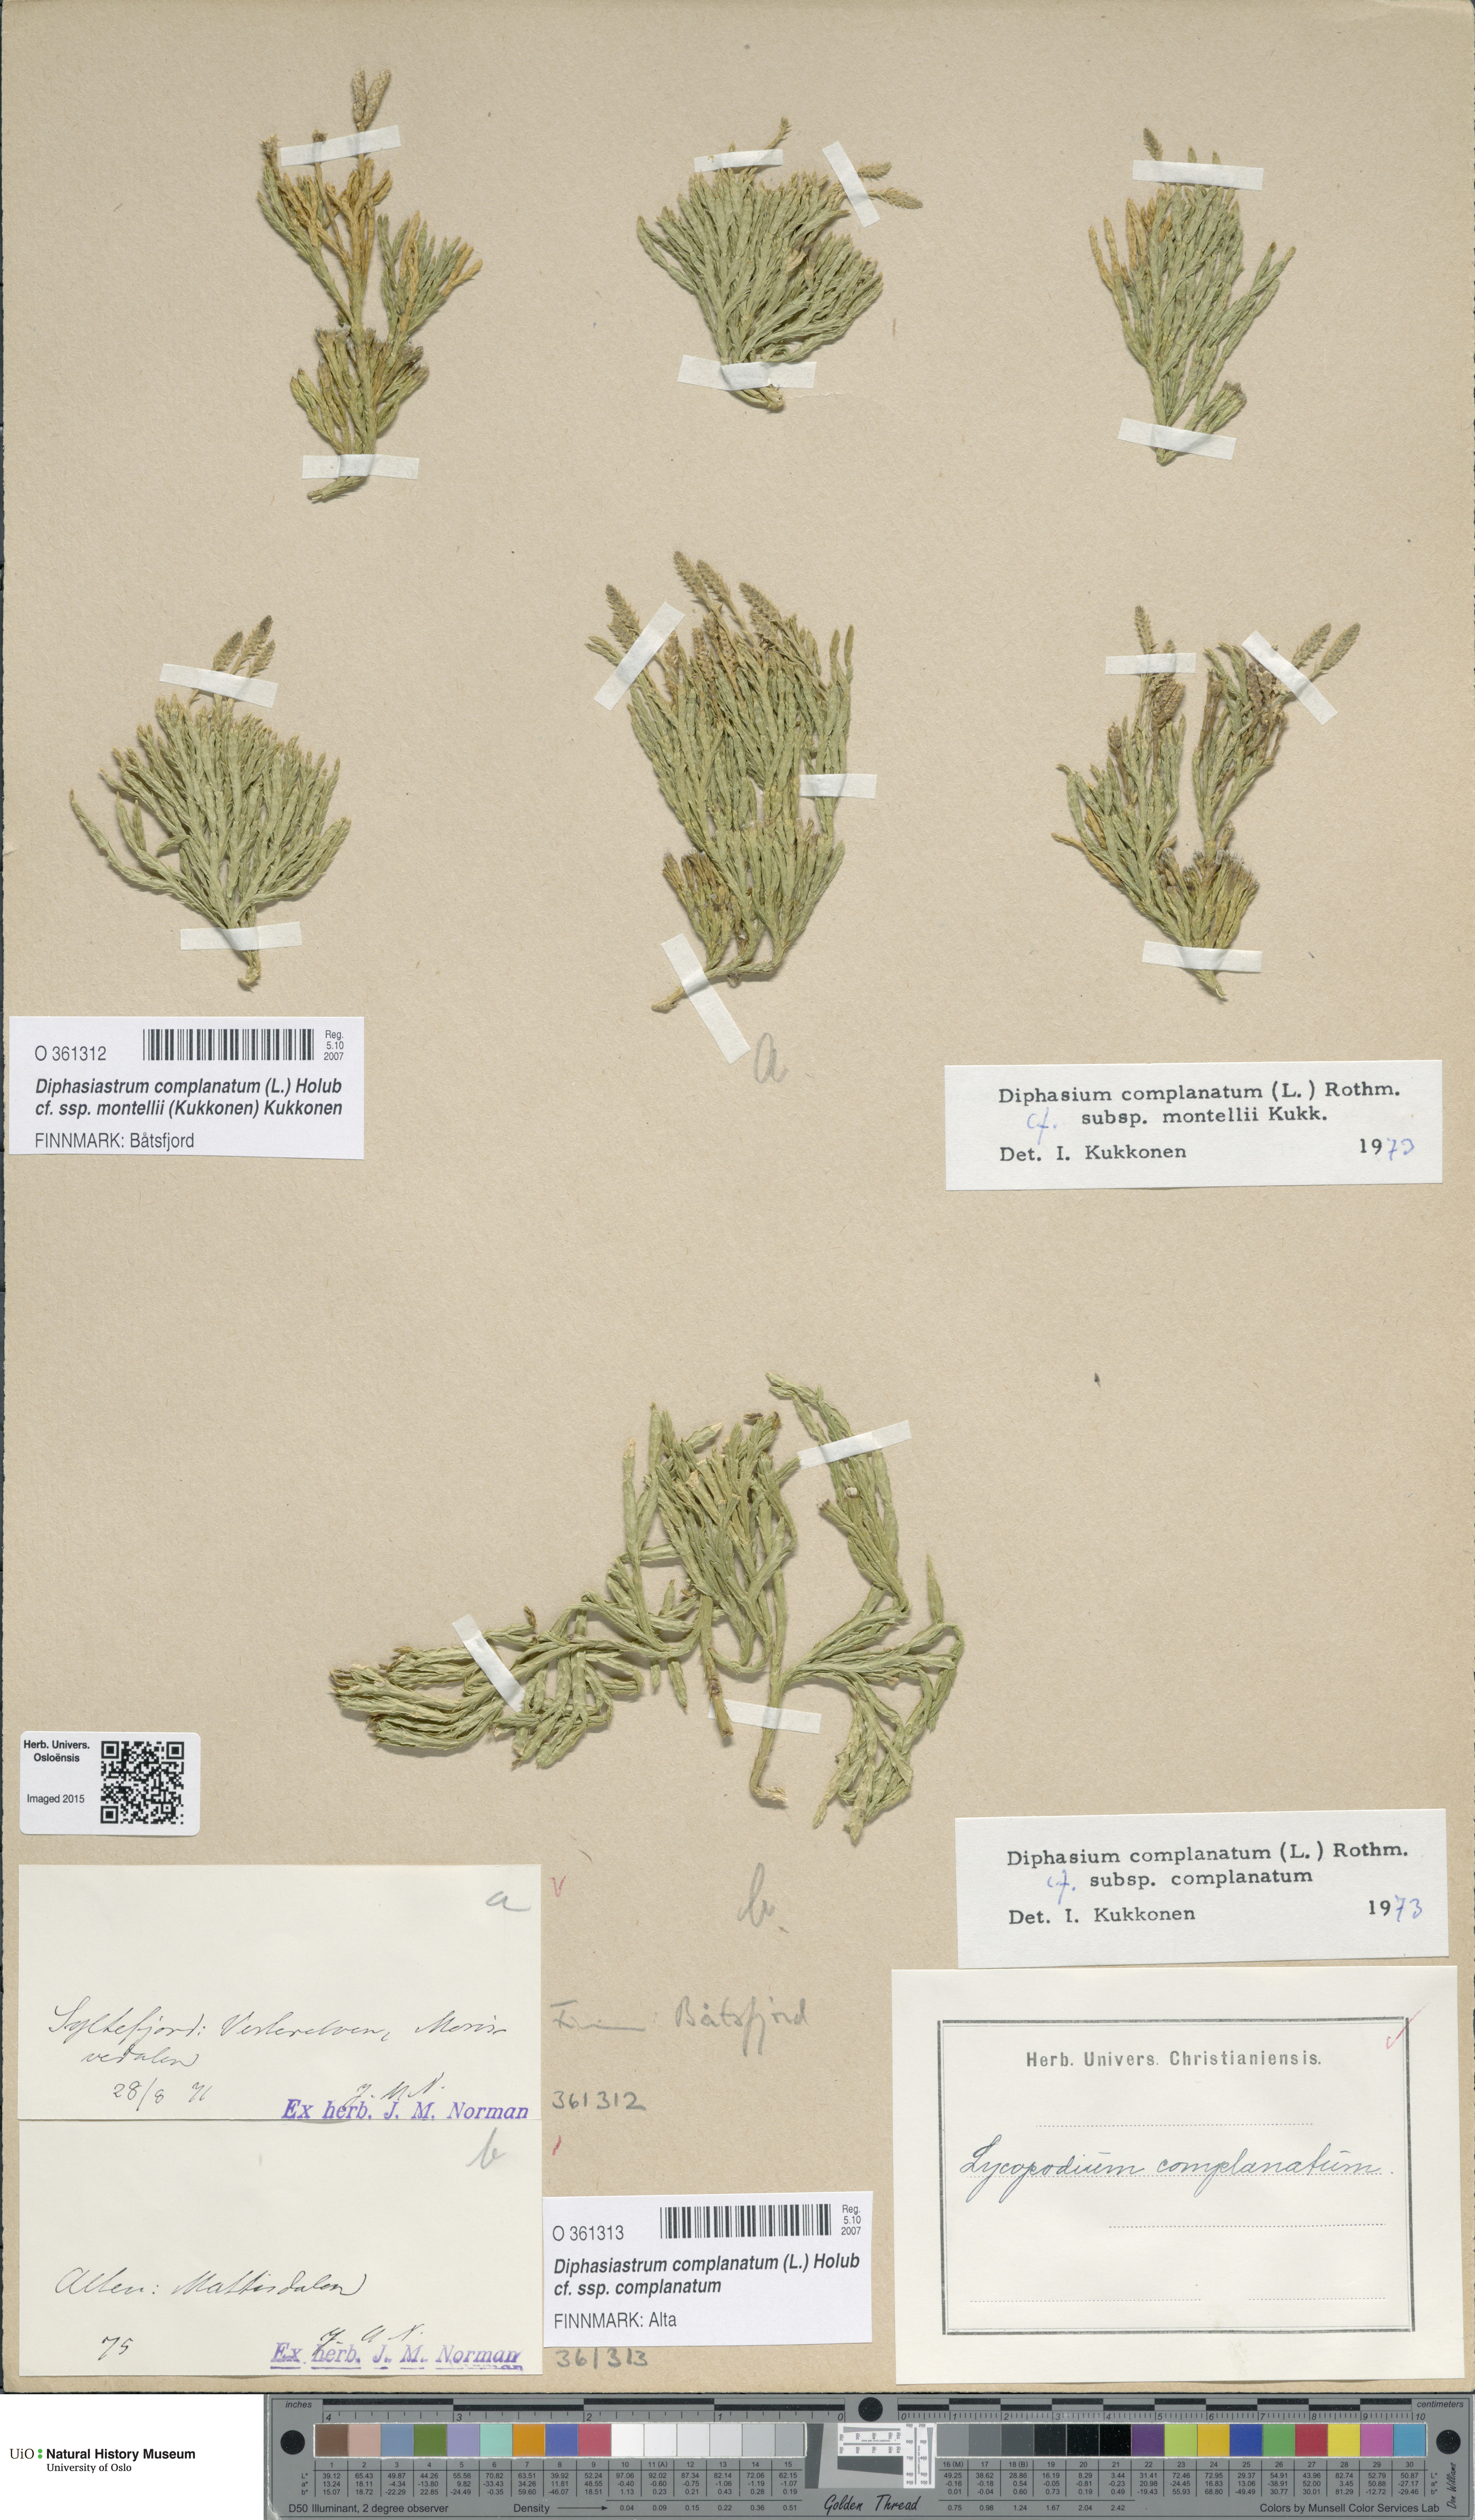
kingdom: Plantae
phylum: Tracheophyta
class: Lycopodiopsida
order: Lycopodiales
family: Lycopodiaceae
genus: Diphasiastrum
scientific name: Diphasiastrum complanatum
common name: Northern running-pine
